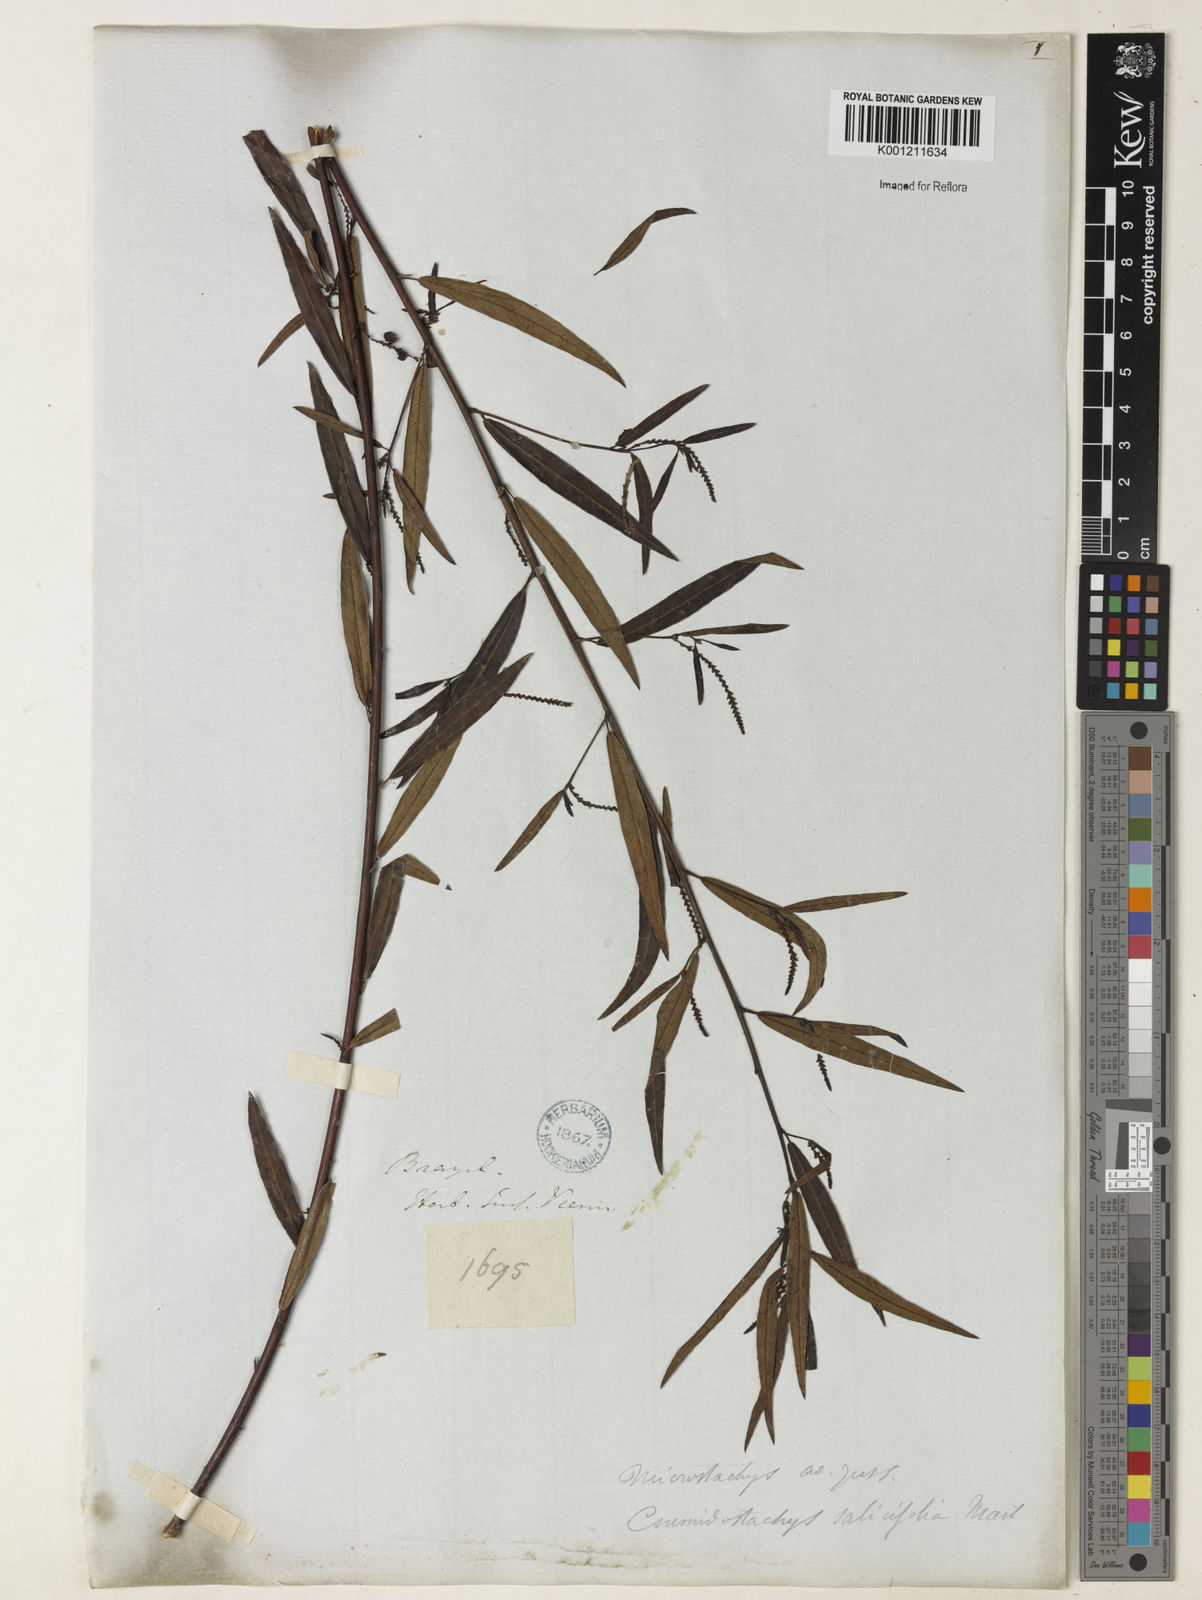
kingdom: Plantae
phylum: Tracheophyta
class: Magnoliopsida
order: Malpighiales
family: Euphorbiaceae
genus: Microstachys
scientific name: Microstachys
